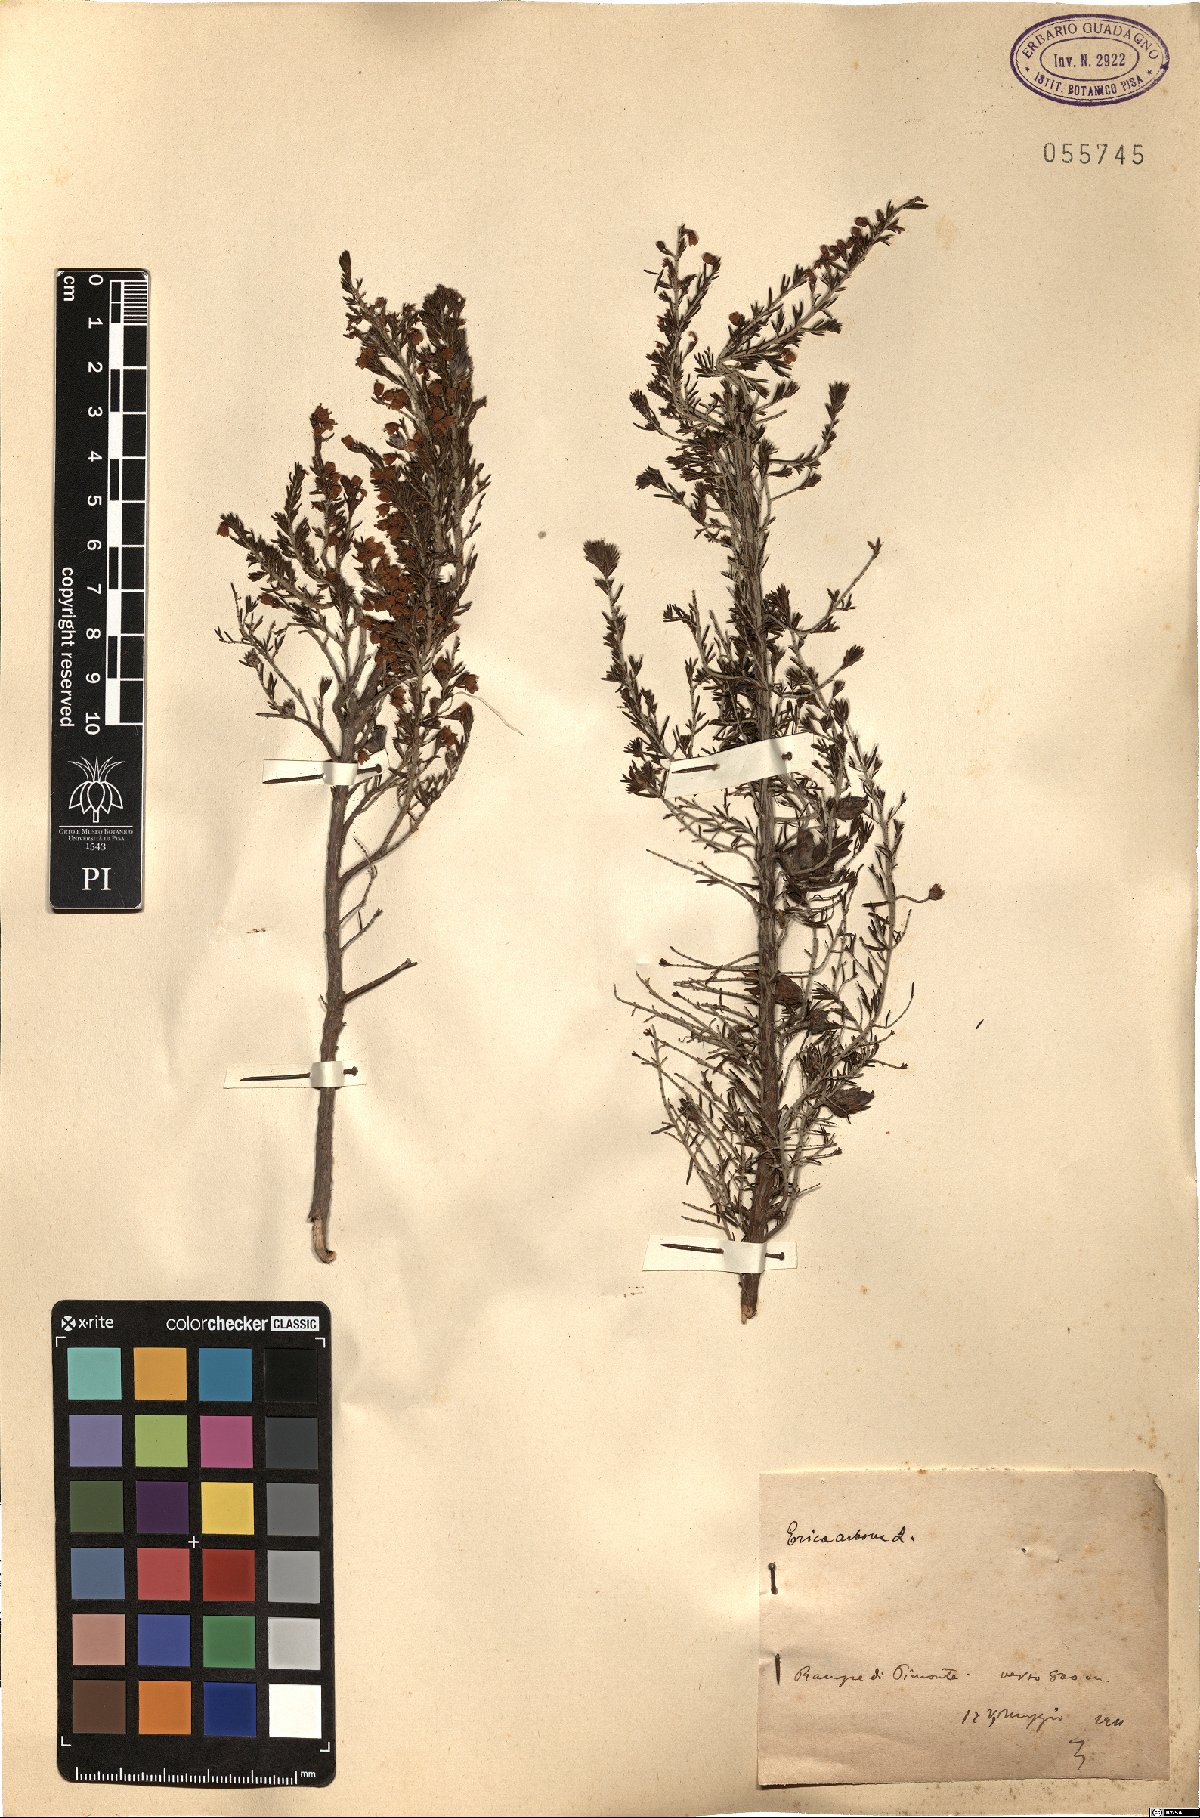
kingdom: Plantae
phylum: Tracheophyta
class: Magnoliopsida
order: Ericales
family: Ericaceae
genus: Erica
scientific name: Erica arborea
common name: Tree heath
